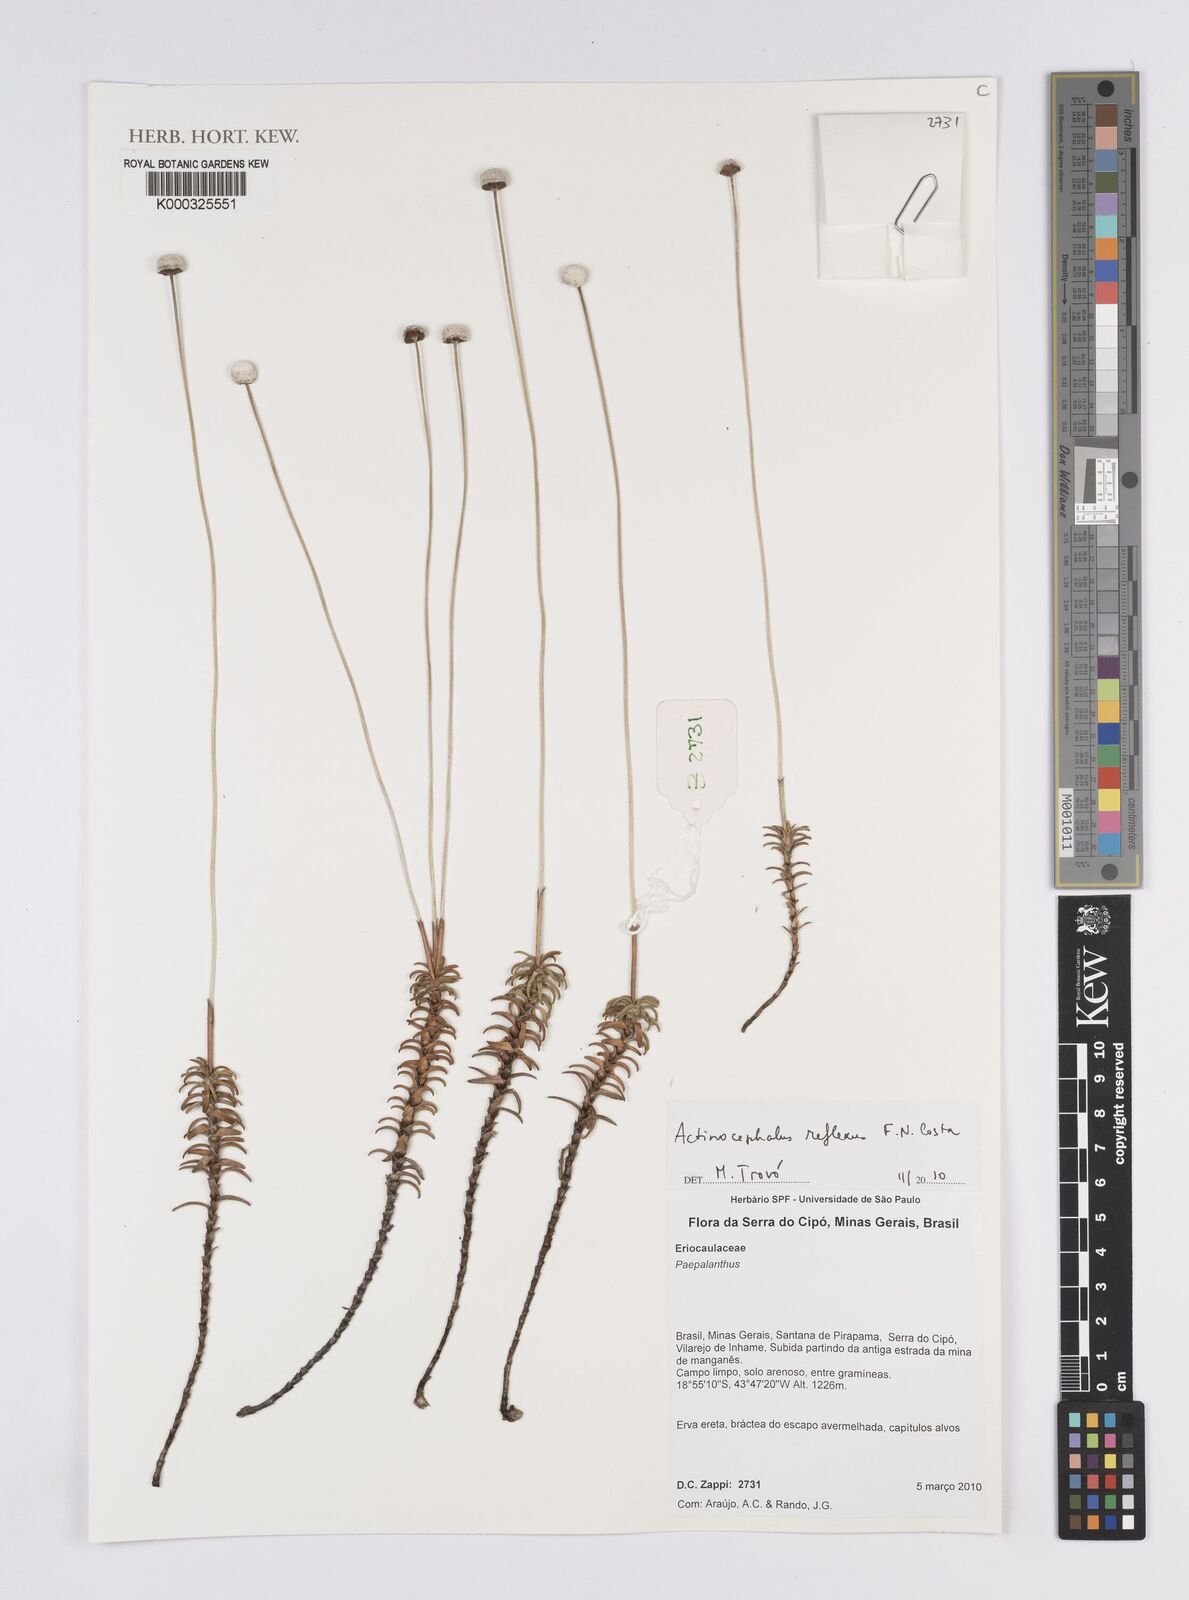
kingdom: Plantae
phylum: Tracheophyta
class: Liliopsida
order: Poales
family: Eriocaulaceae
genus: Paepalanthus
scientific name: Paepalanthus
